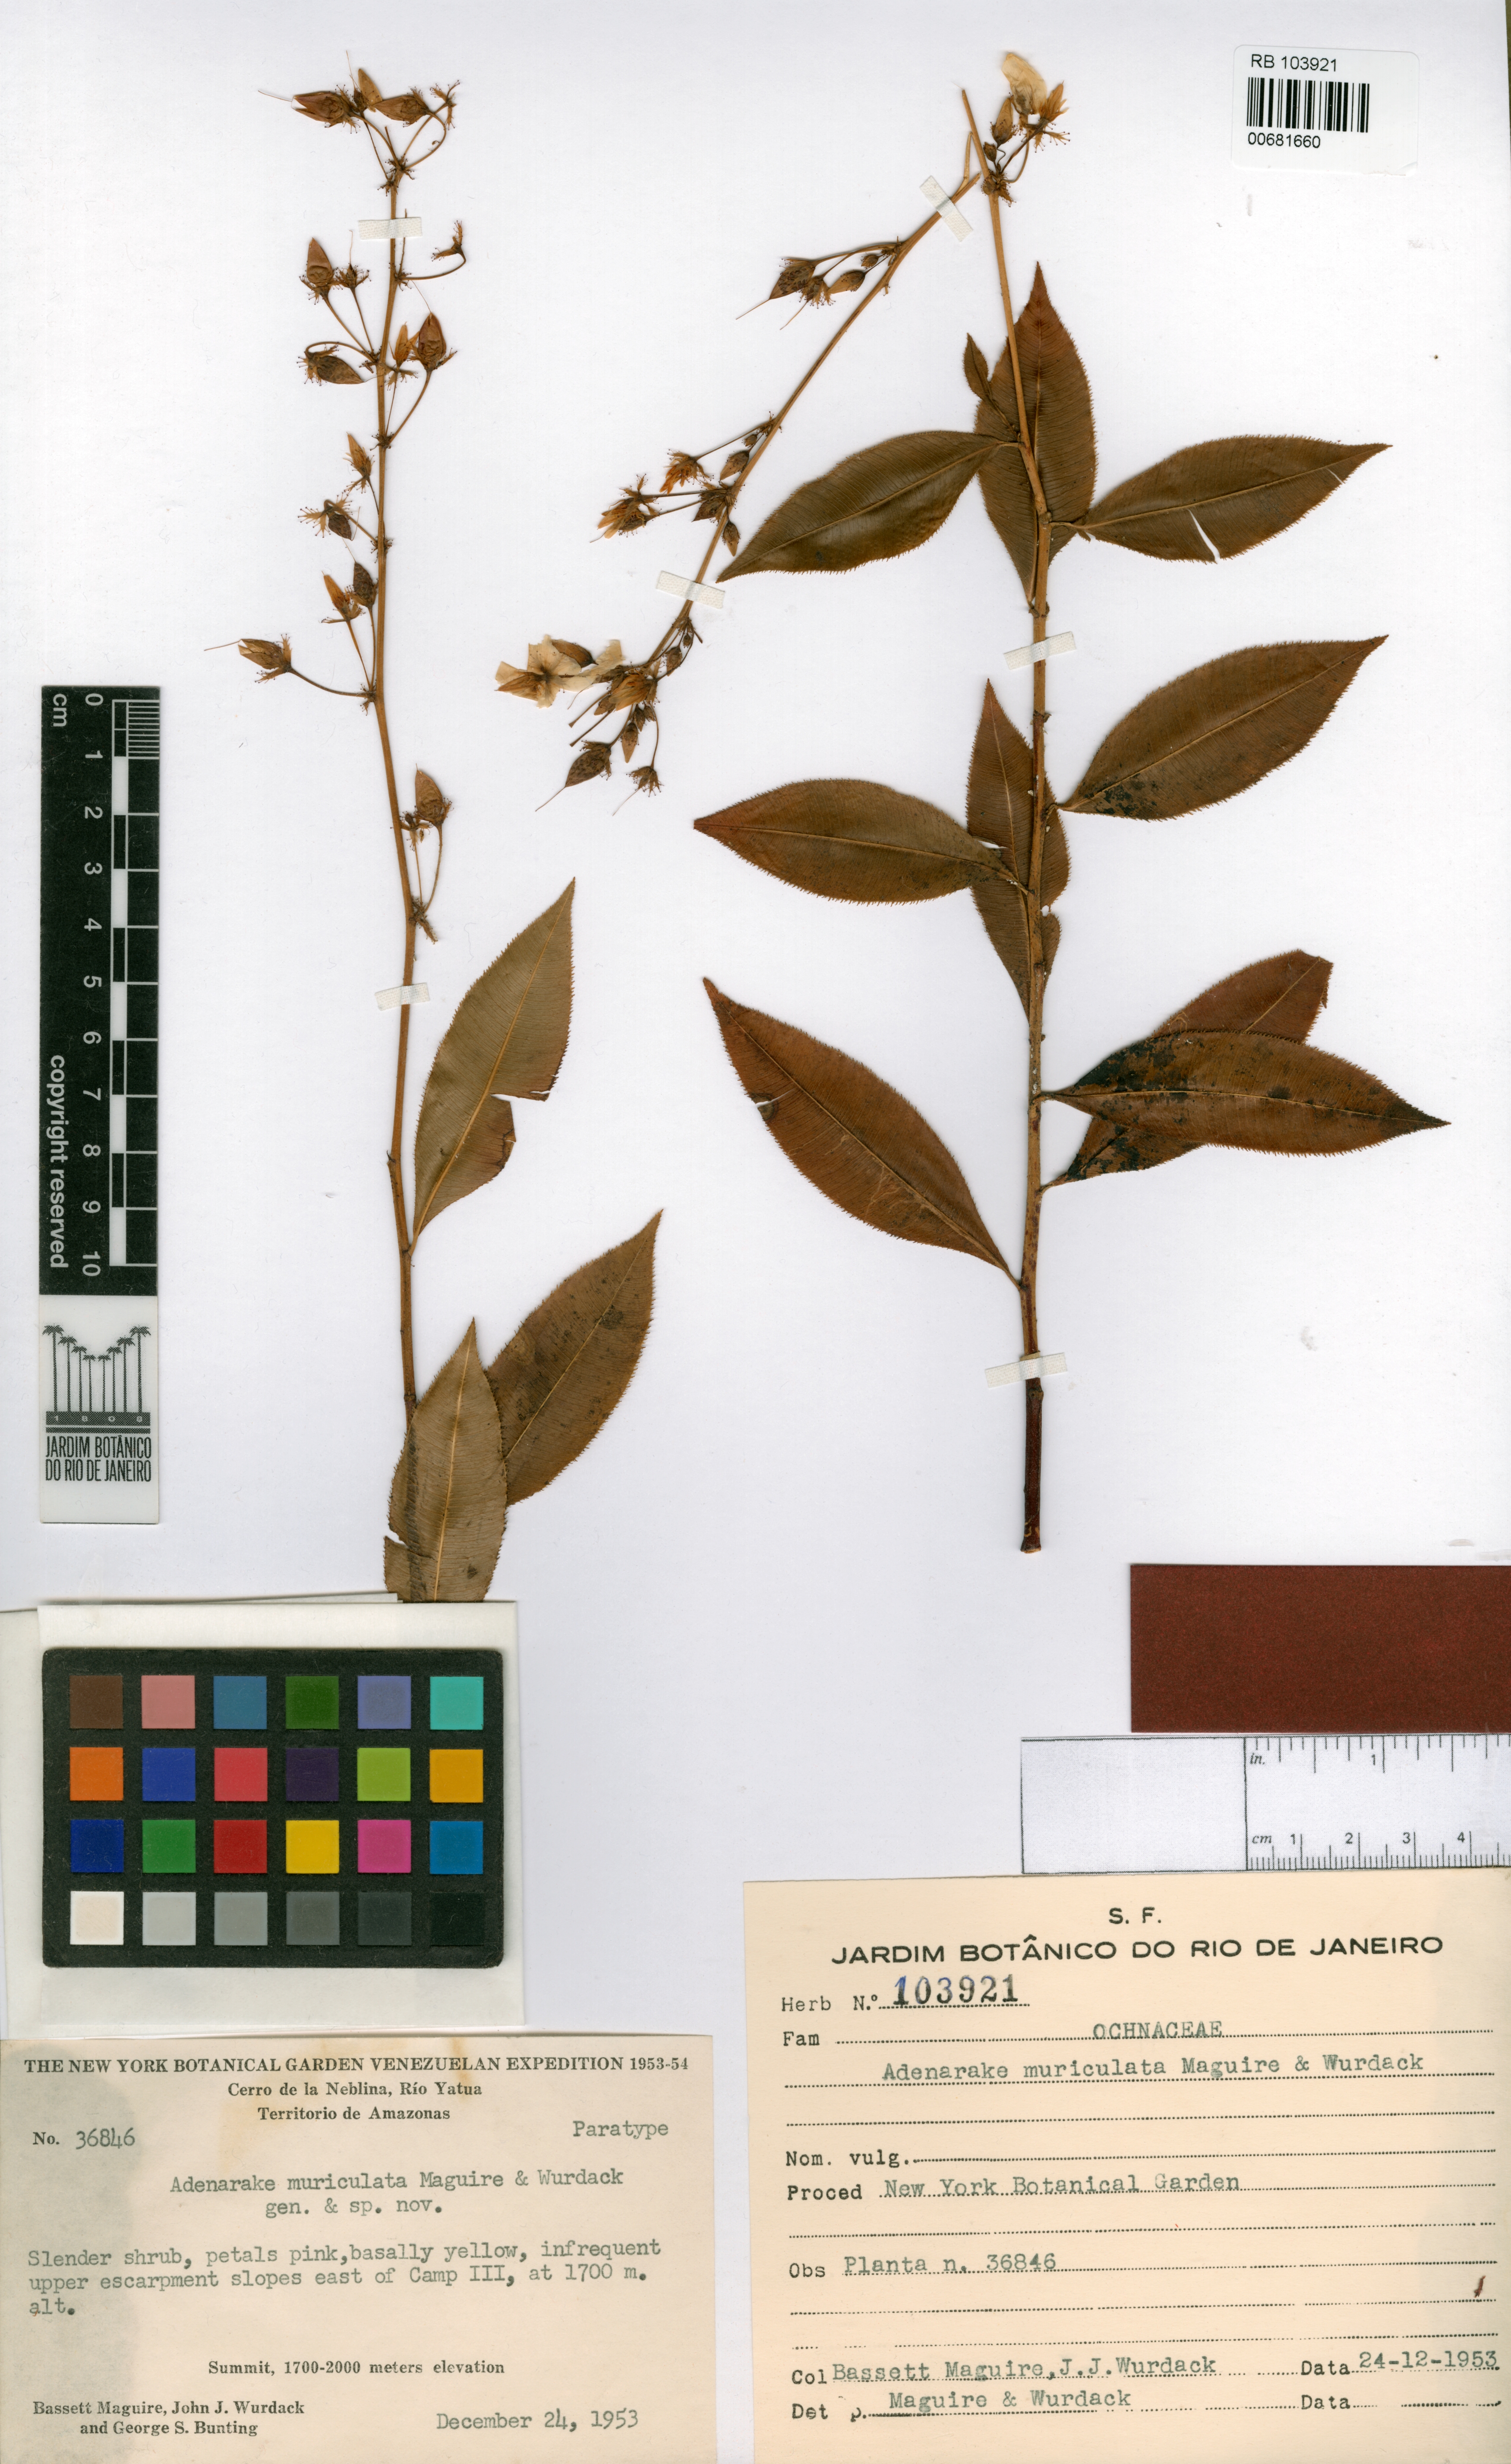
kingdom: Plantae
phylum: Tracheophyta
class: Magnoliopsida
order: Malpighiales
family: Ochnaceae
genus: Sauvagesia
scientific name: Sauvagesia muriculata
